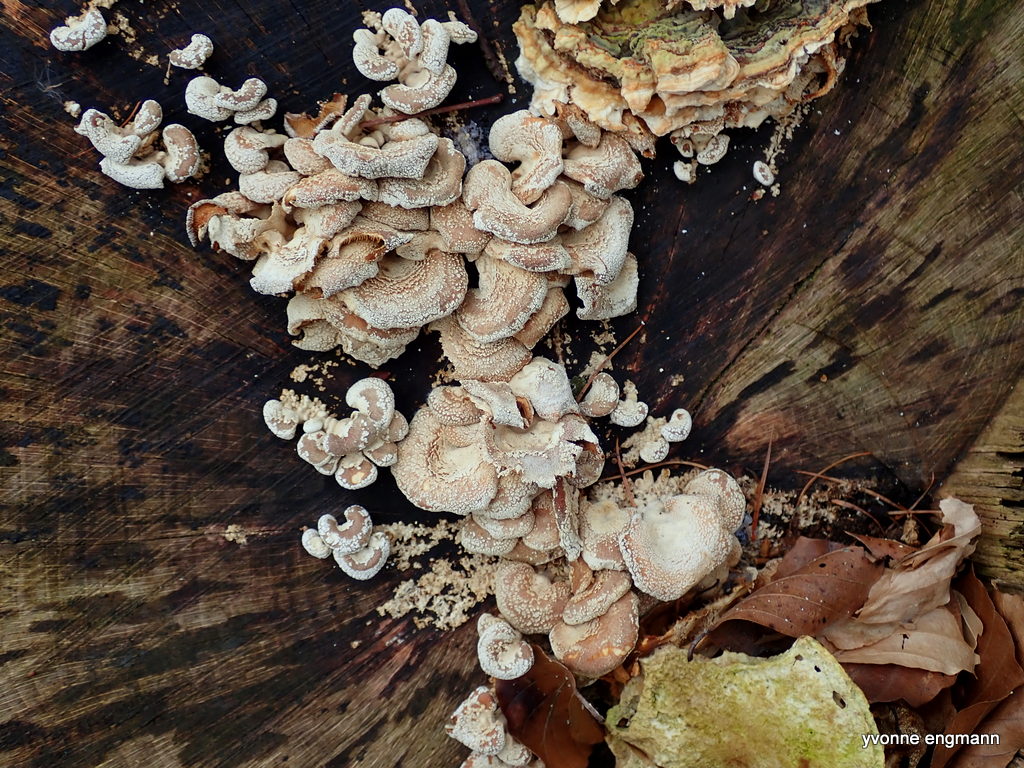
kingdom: Fungi
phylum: Basidiomycota
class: Agaricomycetes
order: Agaricales
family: Mycenaceae
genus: Panellus
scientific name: Panellus stipticus
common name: kliddet epaulethat
